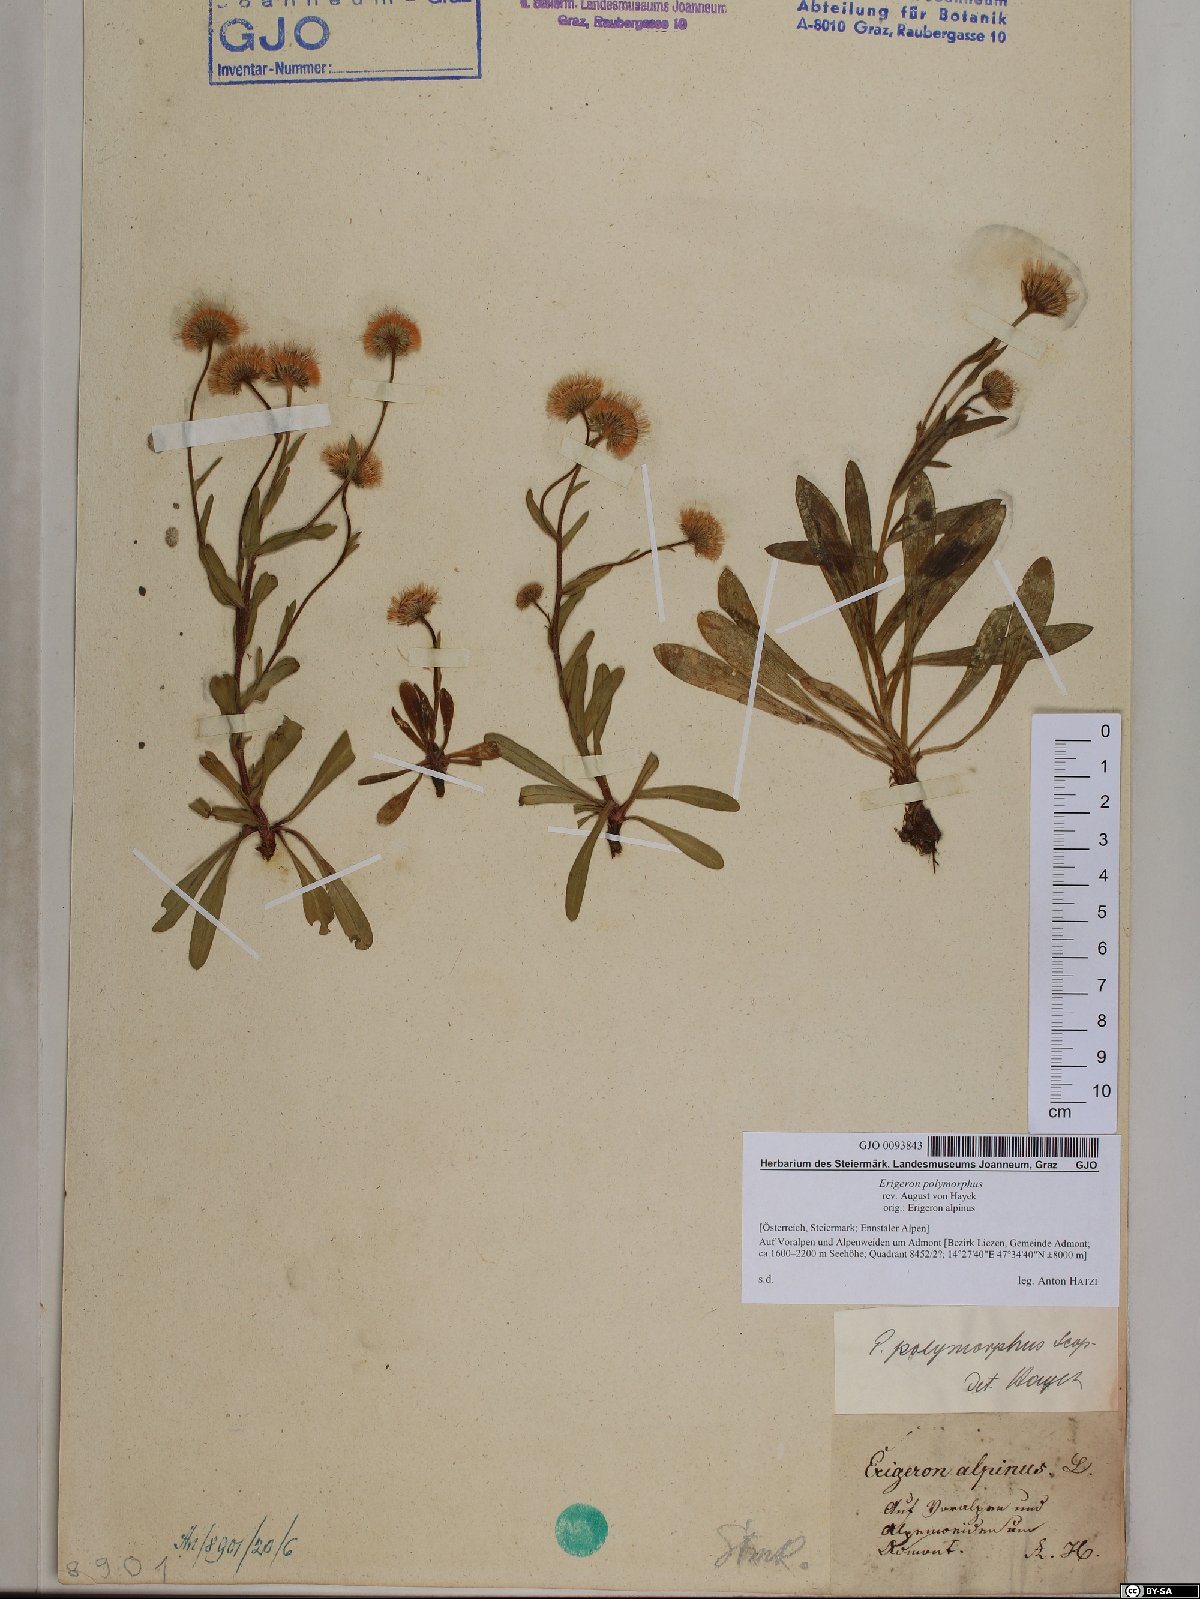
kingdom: Plantae
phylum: Tracheophyta
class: Magnoliopsida
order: Asterales
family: Asteraceae
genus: Erigeron
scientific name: Erigeron alpinus
